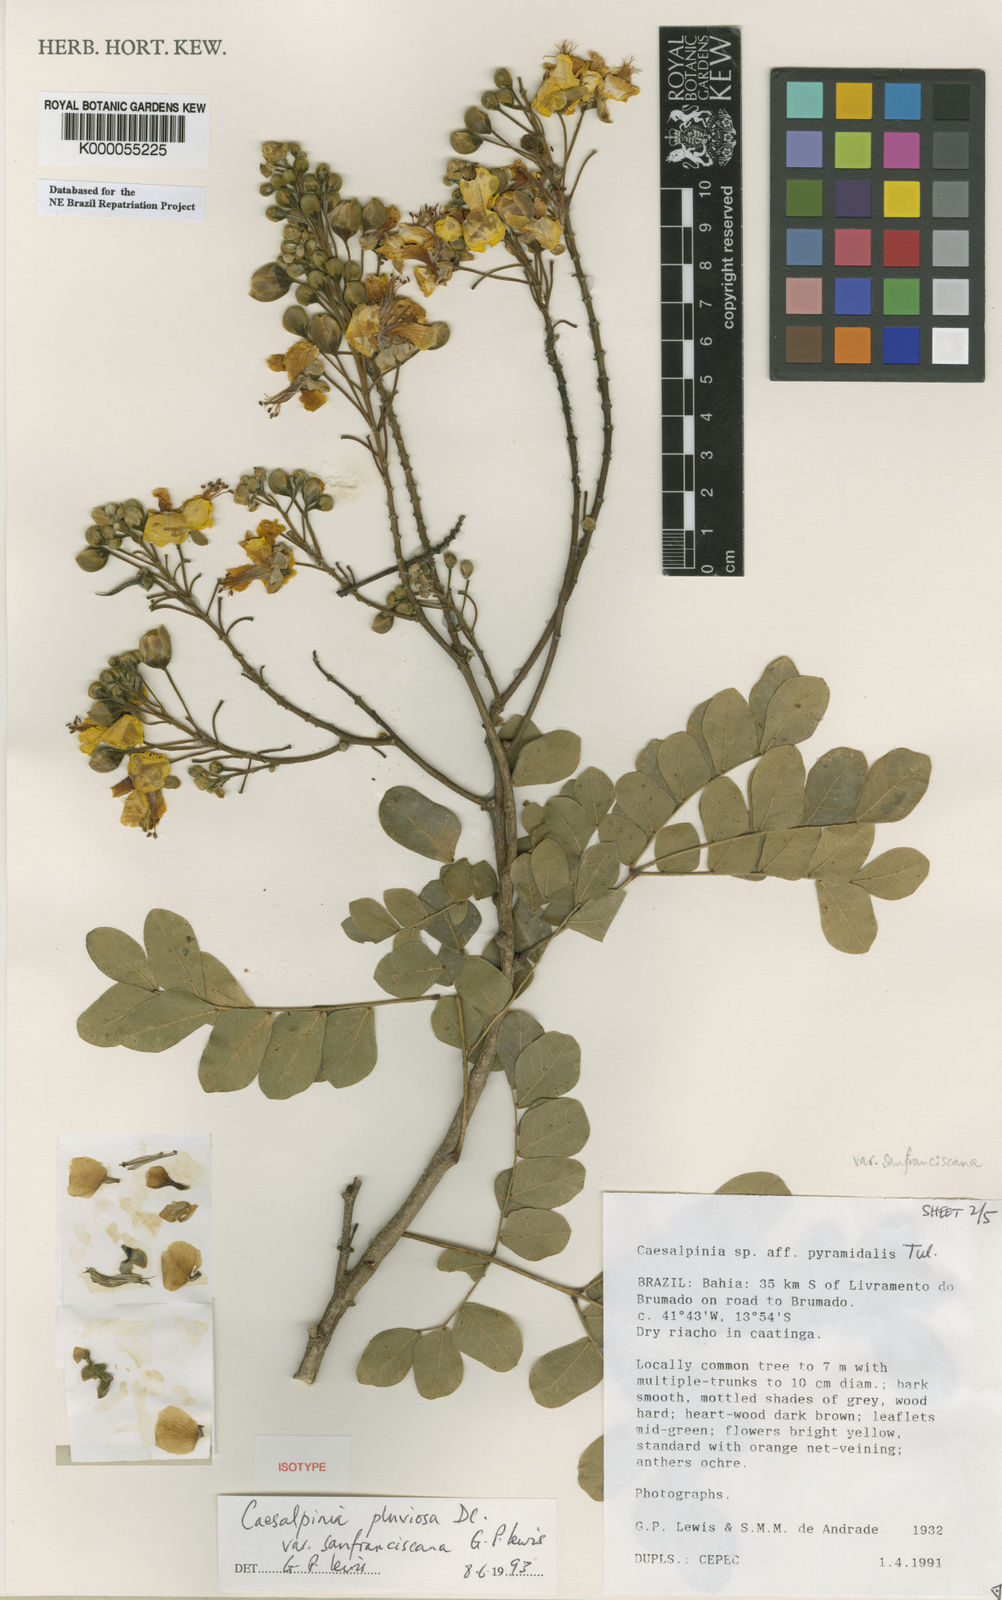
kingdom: Plantae
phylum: Tracheophyta
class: Magnoliopsida
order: Fabales
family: Fabaceae
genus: Cenostigma
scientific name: Cenostigma pluviosum
